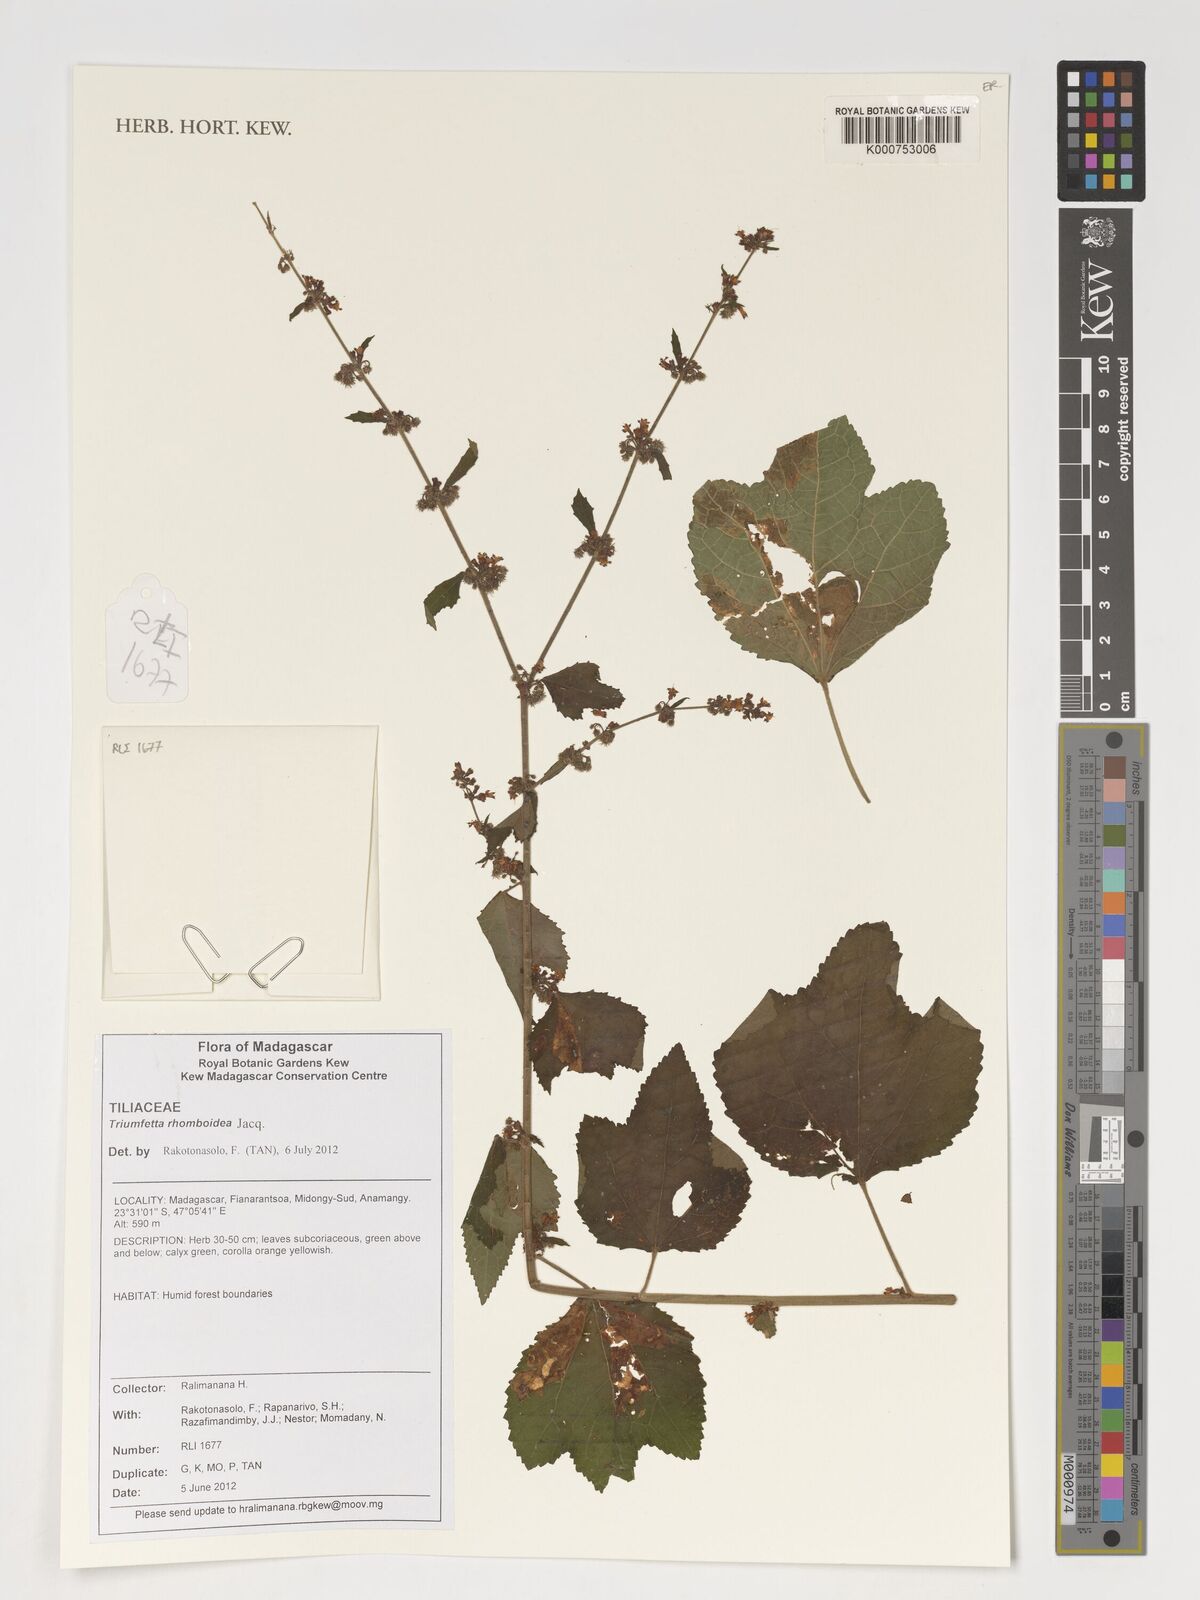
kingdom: Plantae
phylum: Tracheophyta
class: Magnoliopsida
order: Malvales
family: Malvaceae
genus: Triumfetta
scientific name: Triumfetta rhomboidea
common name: Diamond burbark
